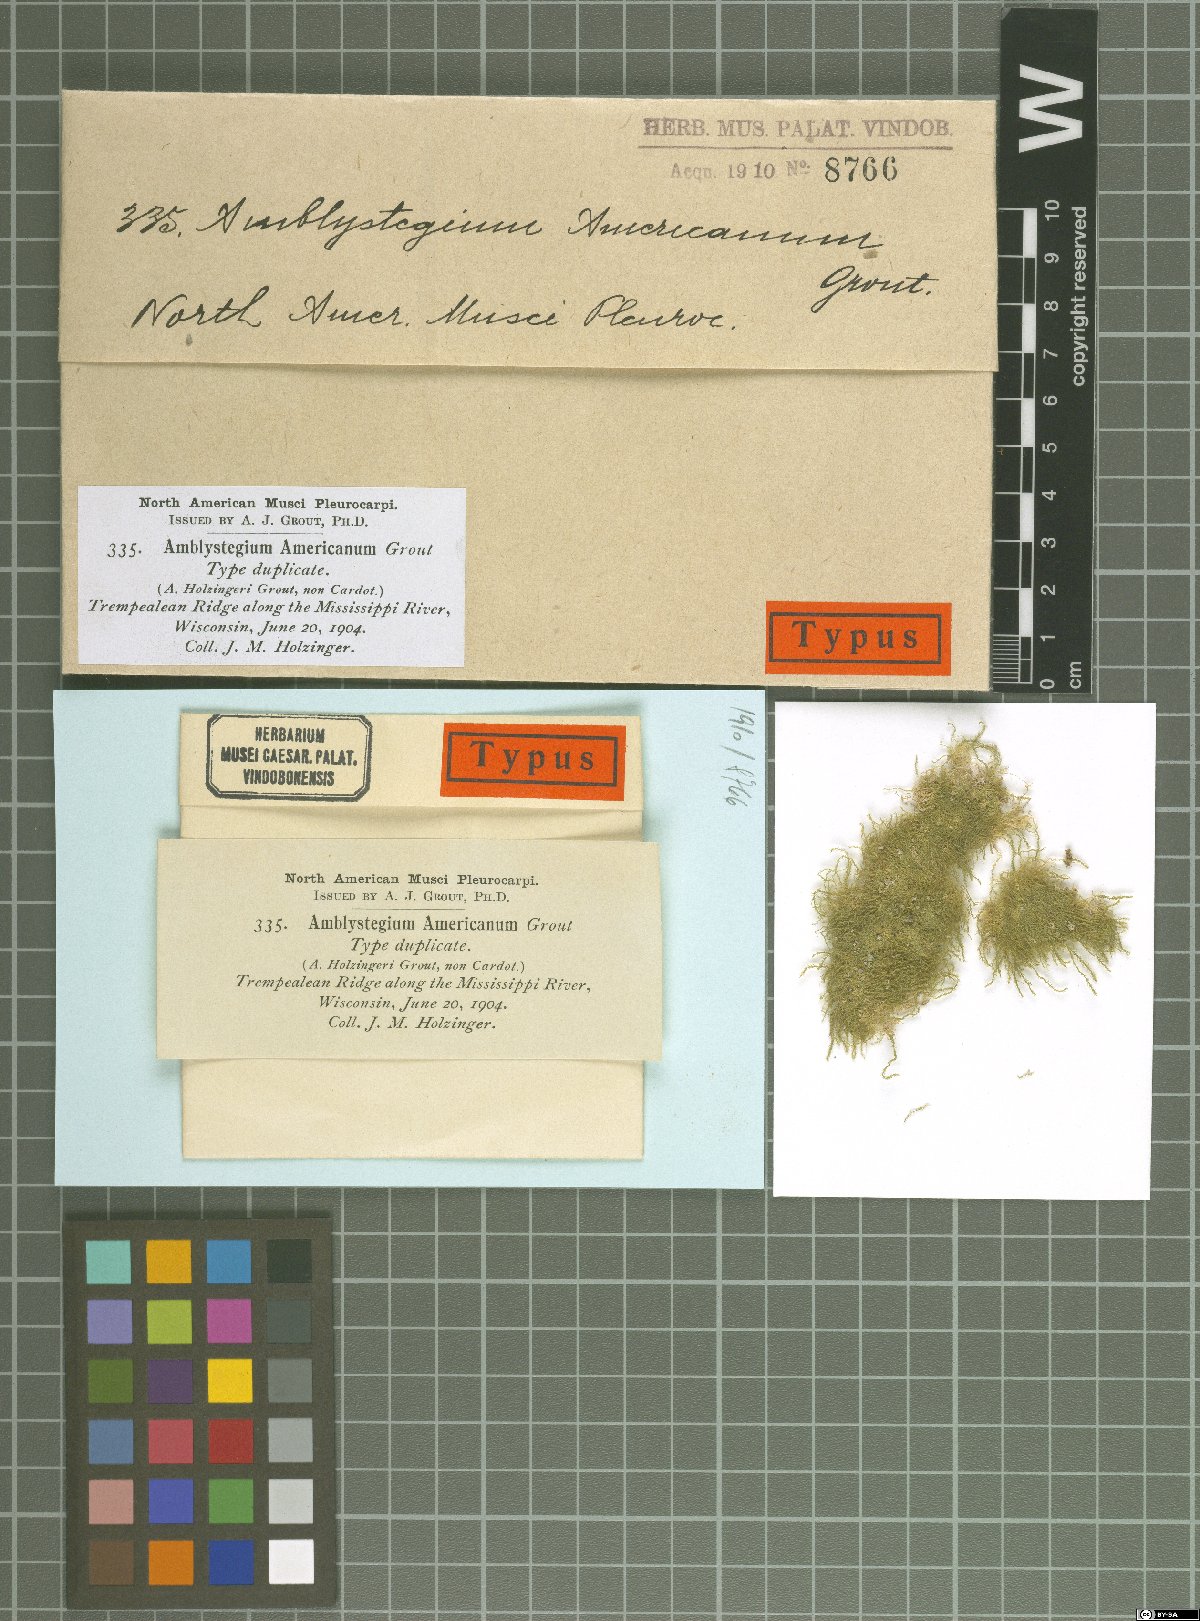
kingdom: Plantae
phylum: Bryophyta
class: Bryopsida
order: Hypnales
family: Amblystegiaceae
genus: Conardia
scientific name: Conardia compacta
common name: Coast creeping moss
